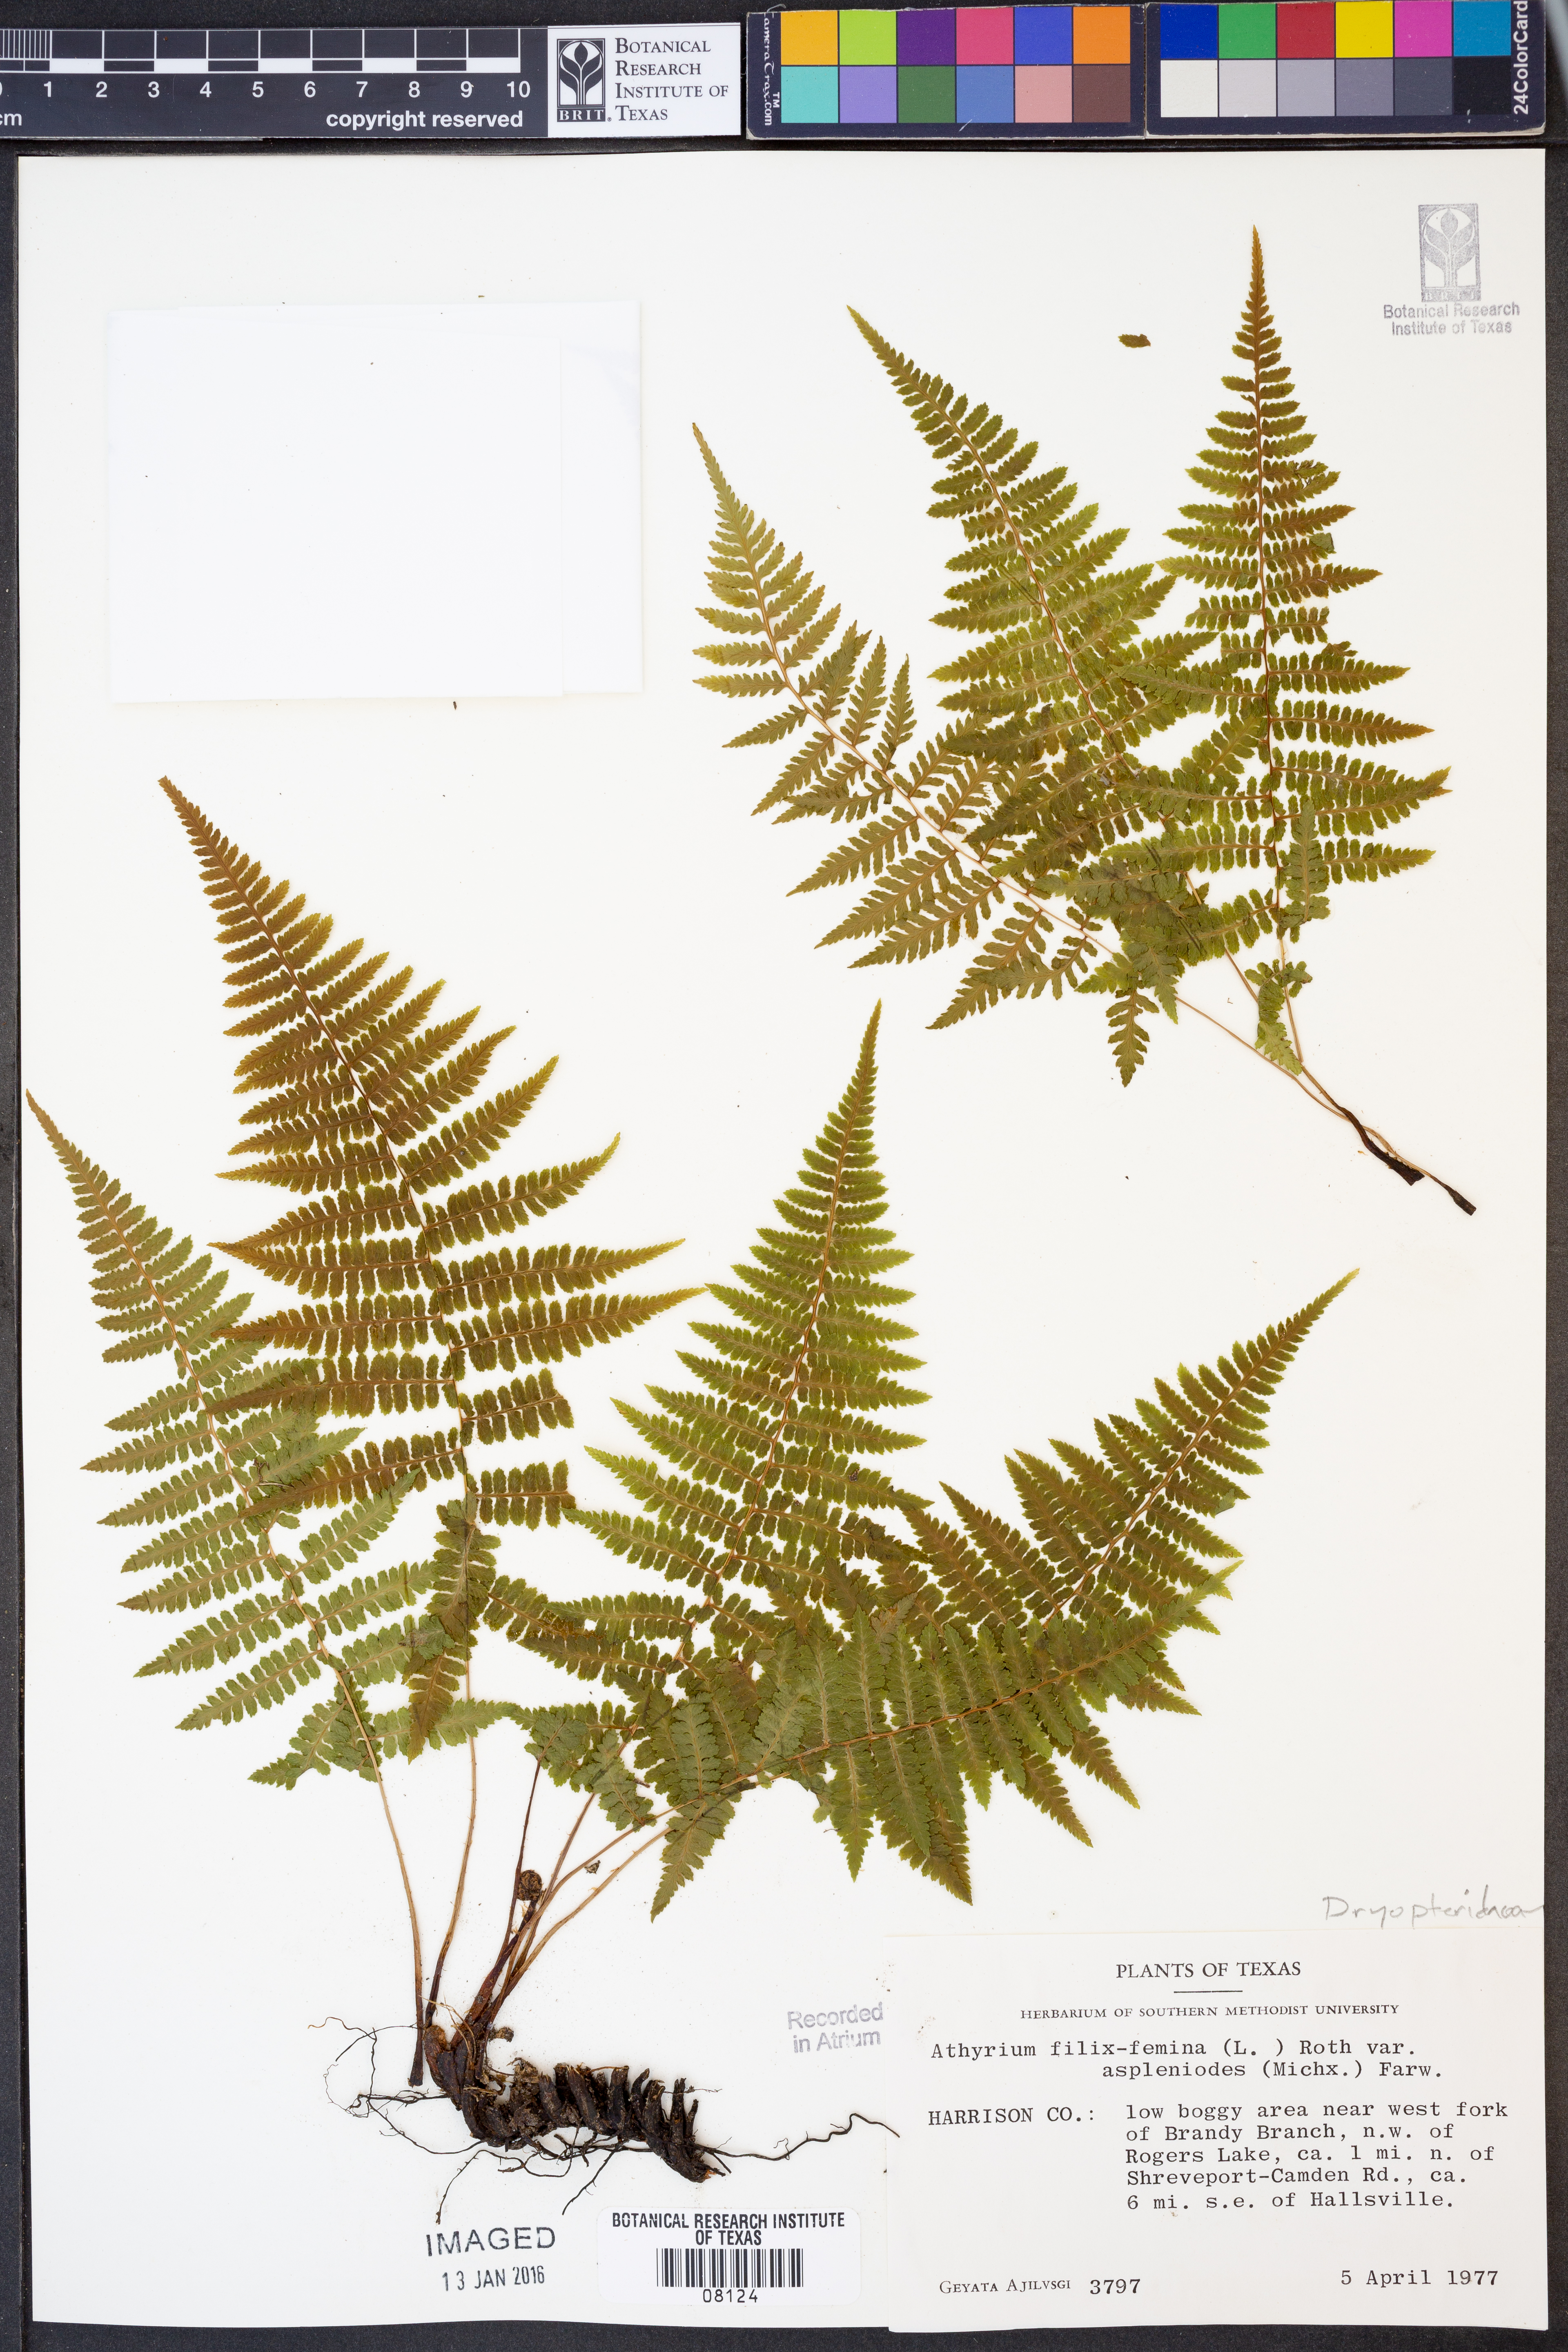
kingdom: Plantae
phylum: Tracheophyta
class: Polypodiopsida
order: Polypodiales
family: Athyriaceae
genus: Athyrium
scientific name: Athyrium asplenioides
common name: Southern lady fern
